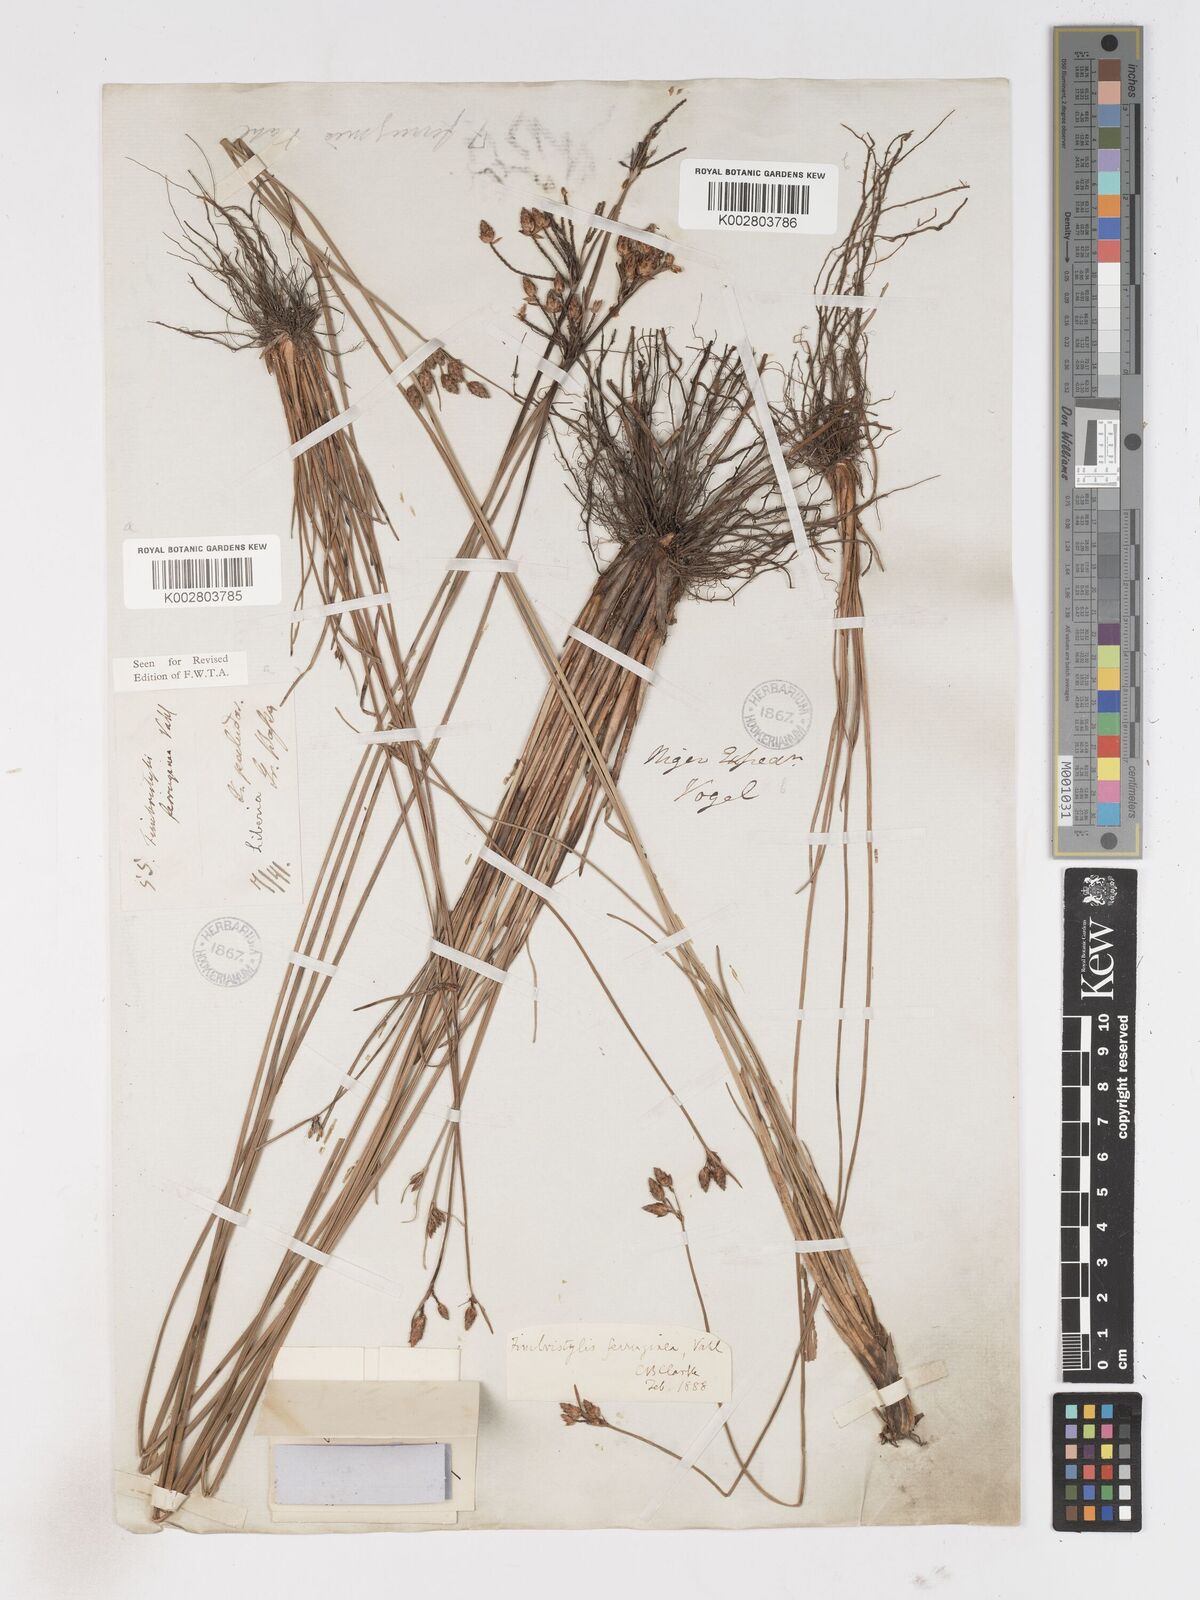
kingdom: Plantae
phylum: Tracheophyta
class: Liliopsida
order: Poales
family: Cyperaceae
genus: Fimbristylis
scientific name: Fimbristylis ferruginea
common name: West indian fimbry
